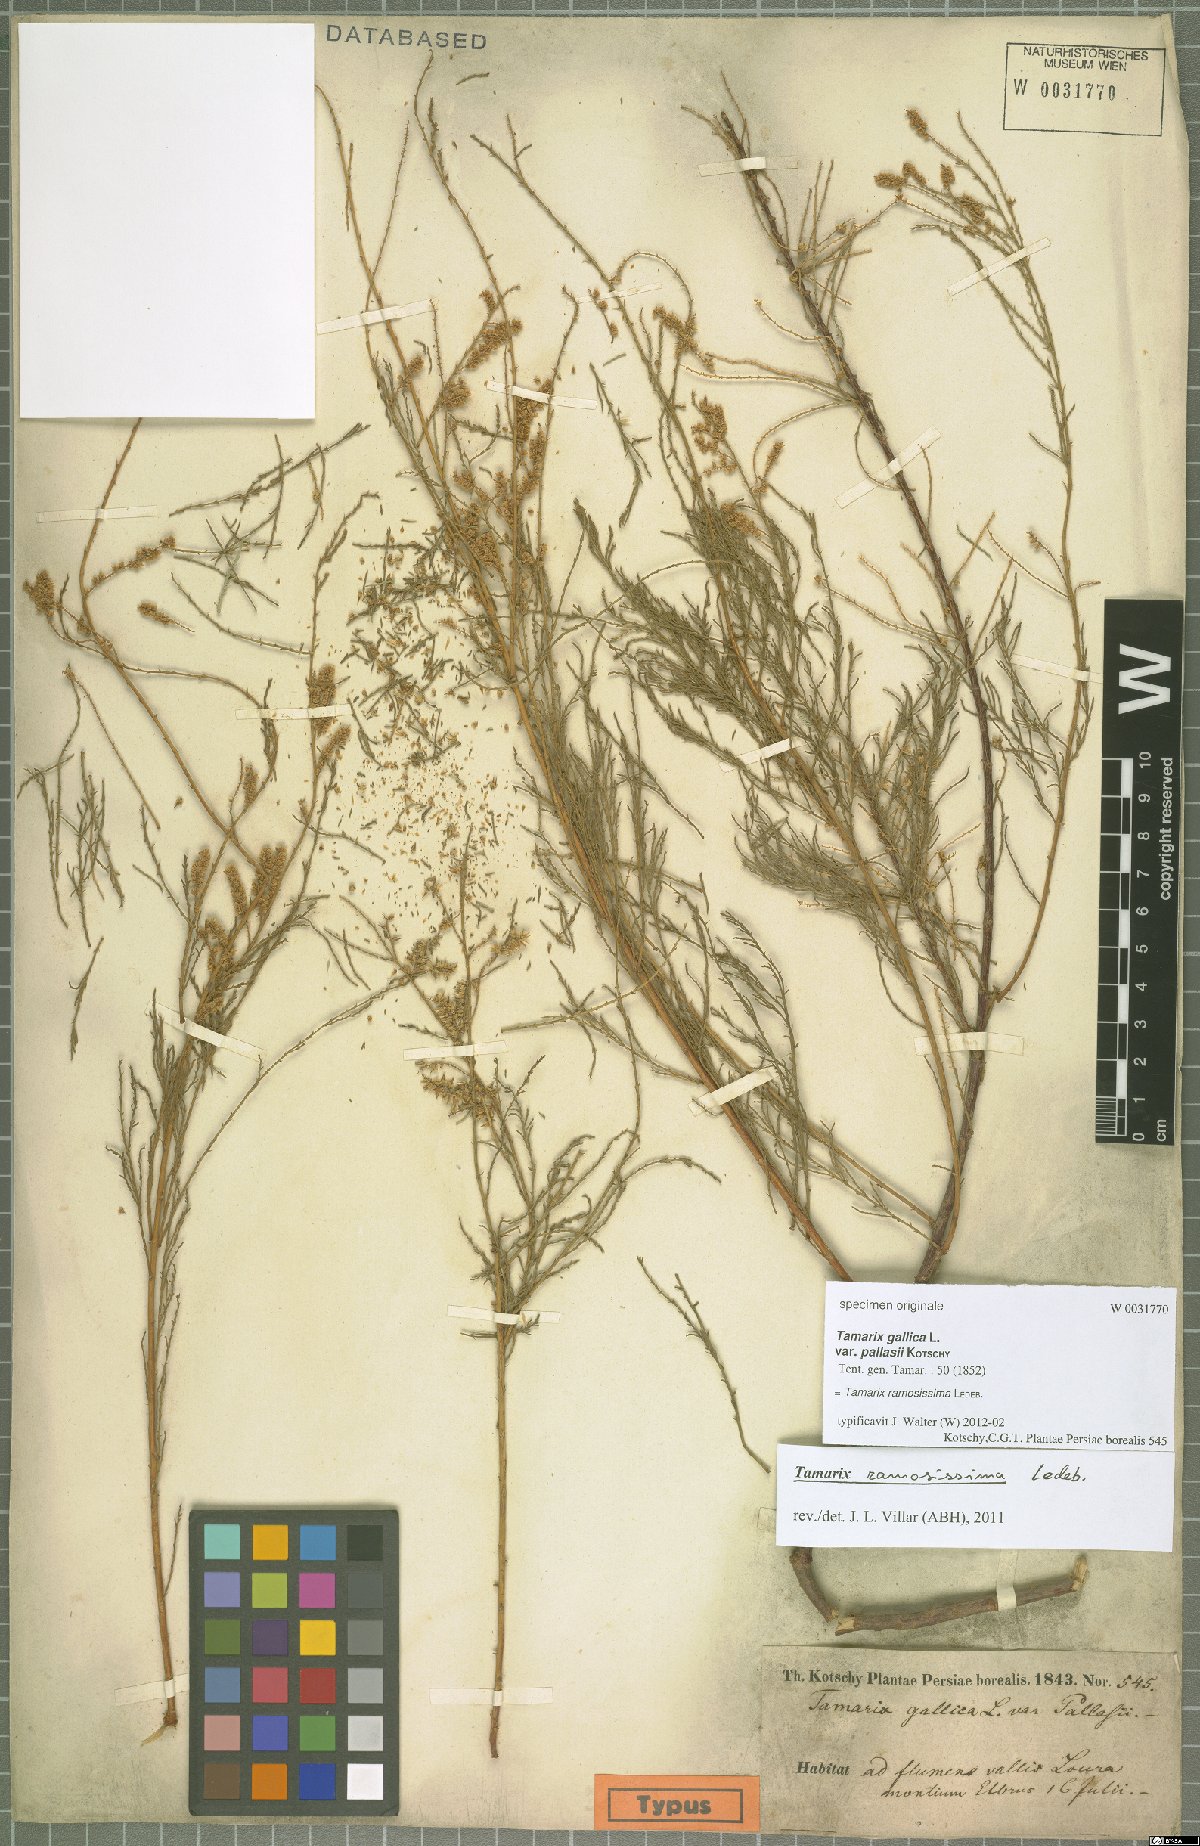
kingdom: Plantae
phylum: Tracheophyta
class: Magnoliopsida
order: Caryophyllales
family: Tamaricaceae
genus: Tamarix
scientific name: Tamarix ramosissima
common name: Pink tamarisk
